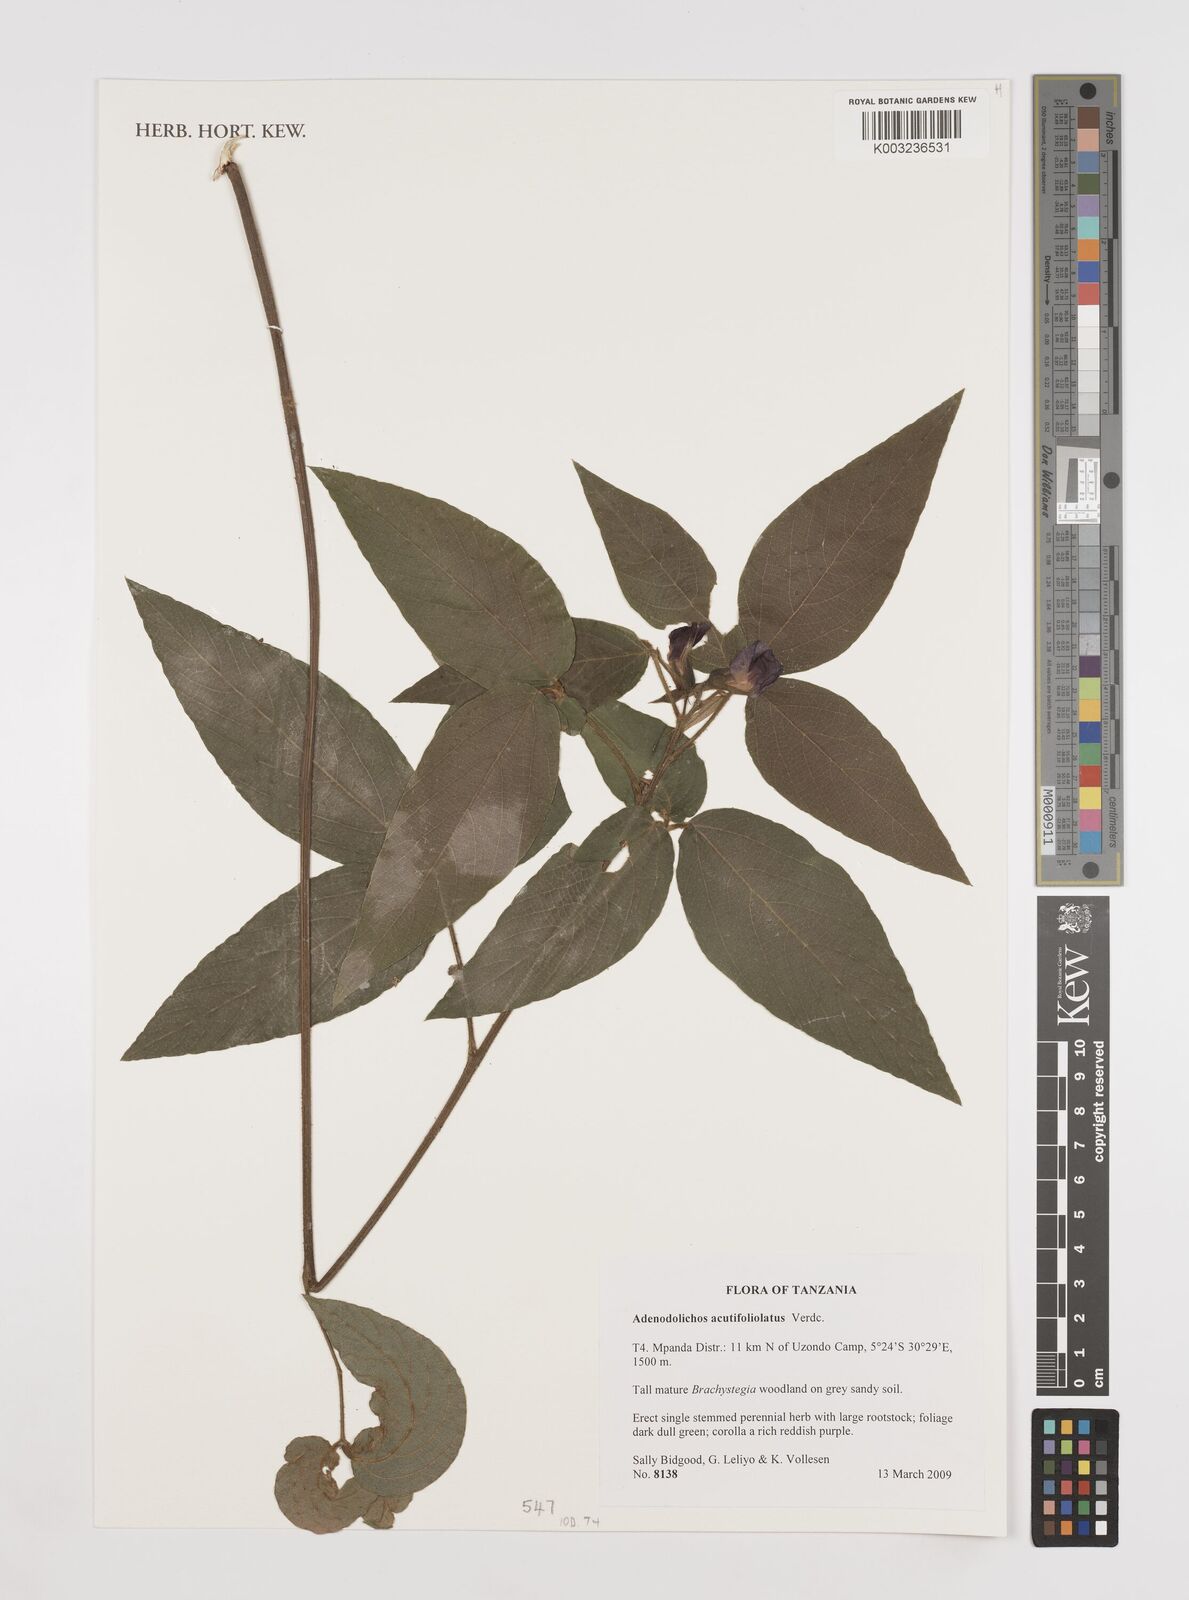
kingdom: Plantae
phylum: Tracheophyta
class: Magnoliopsida
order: Fabales
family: Fabaceae
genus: Adenodolichos
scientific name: Adenodolichos acutifoliolatus
